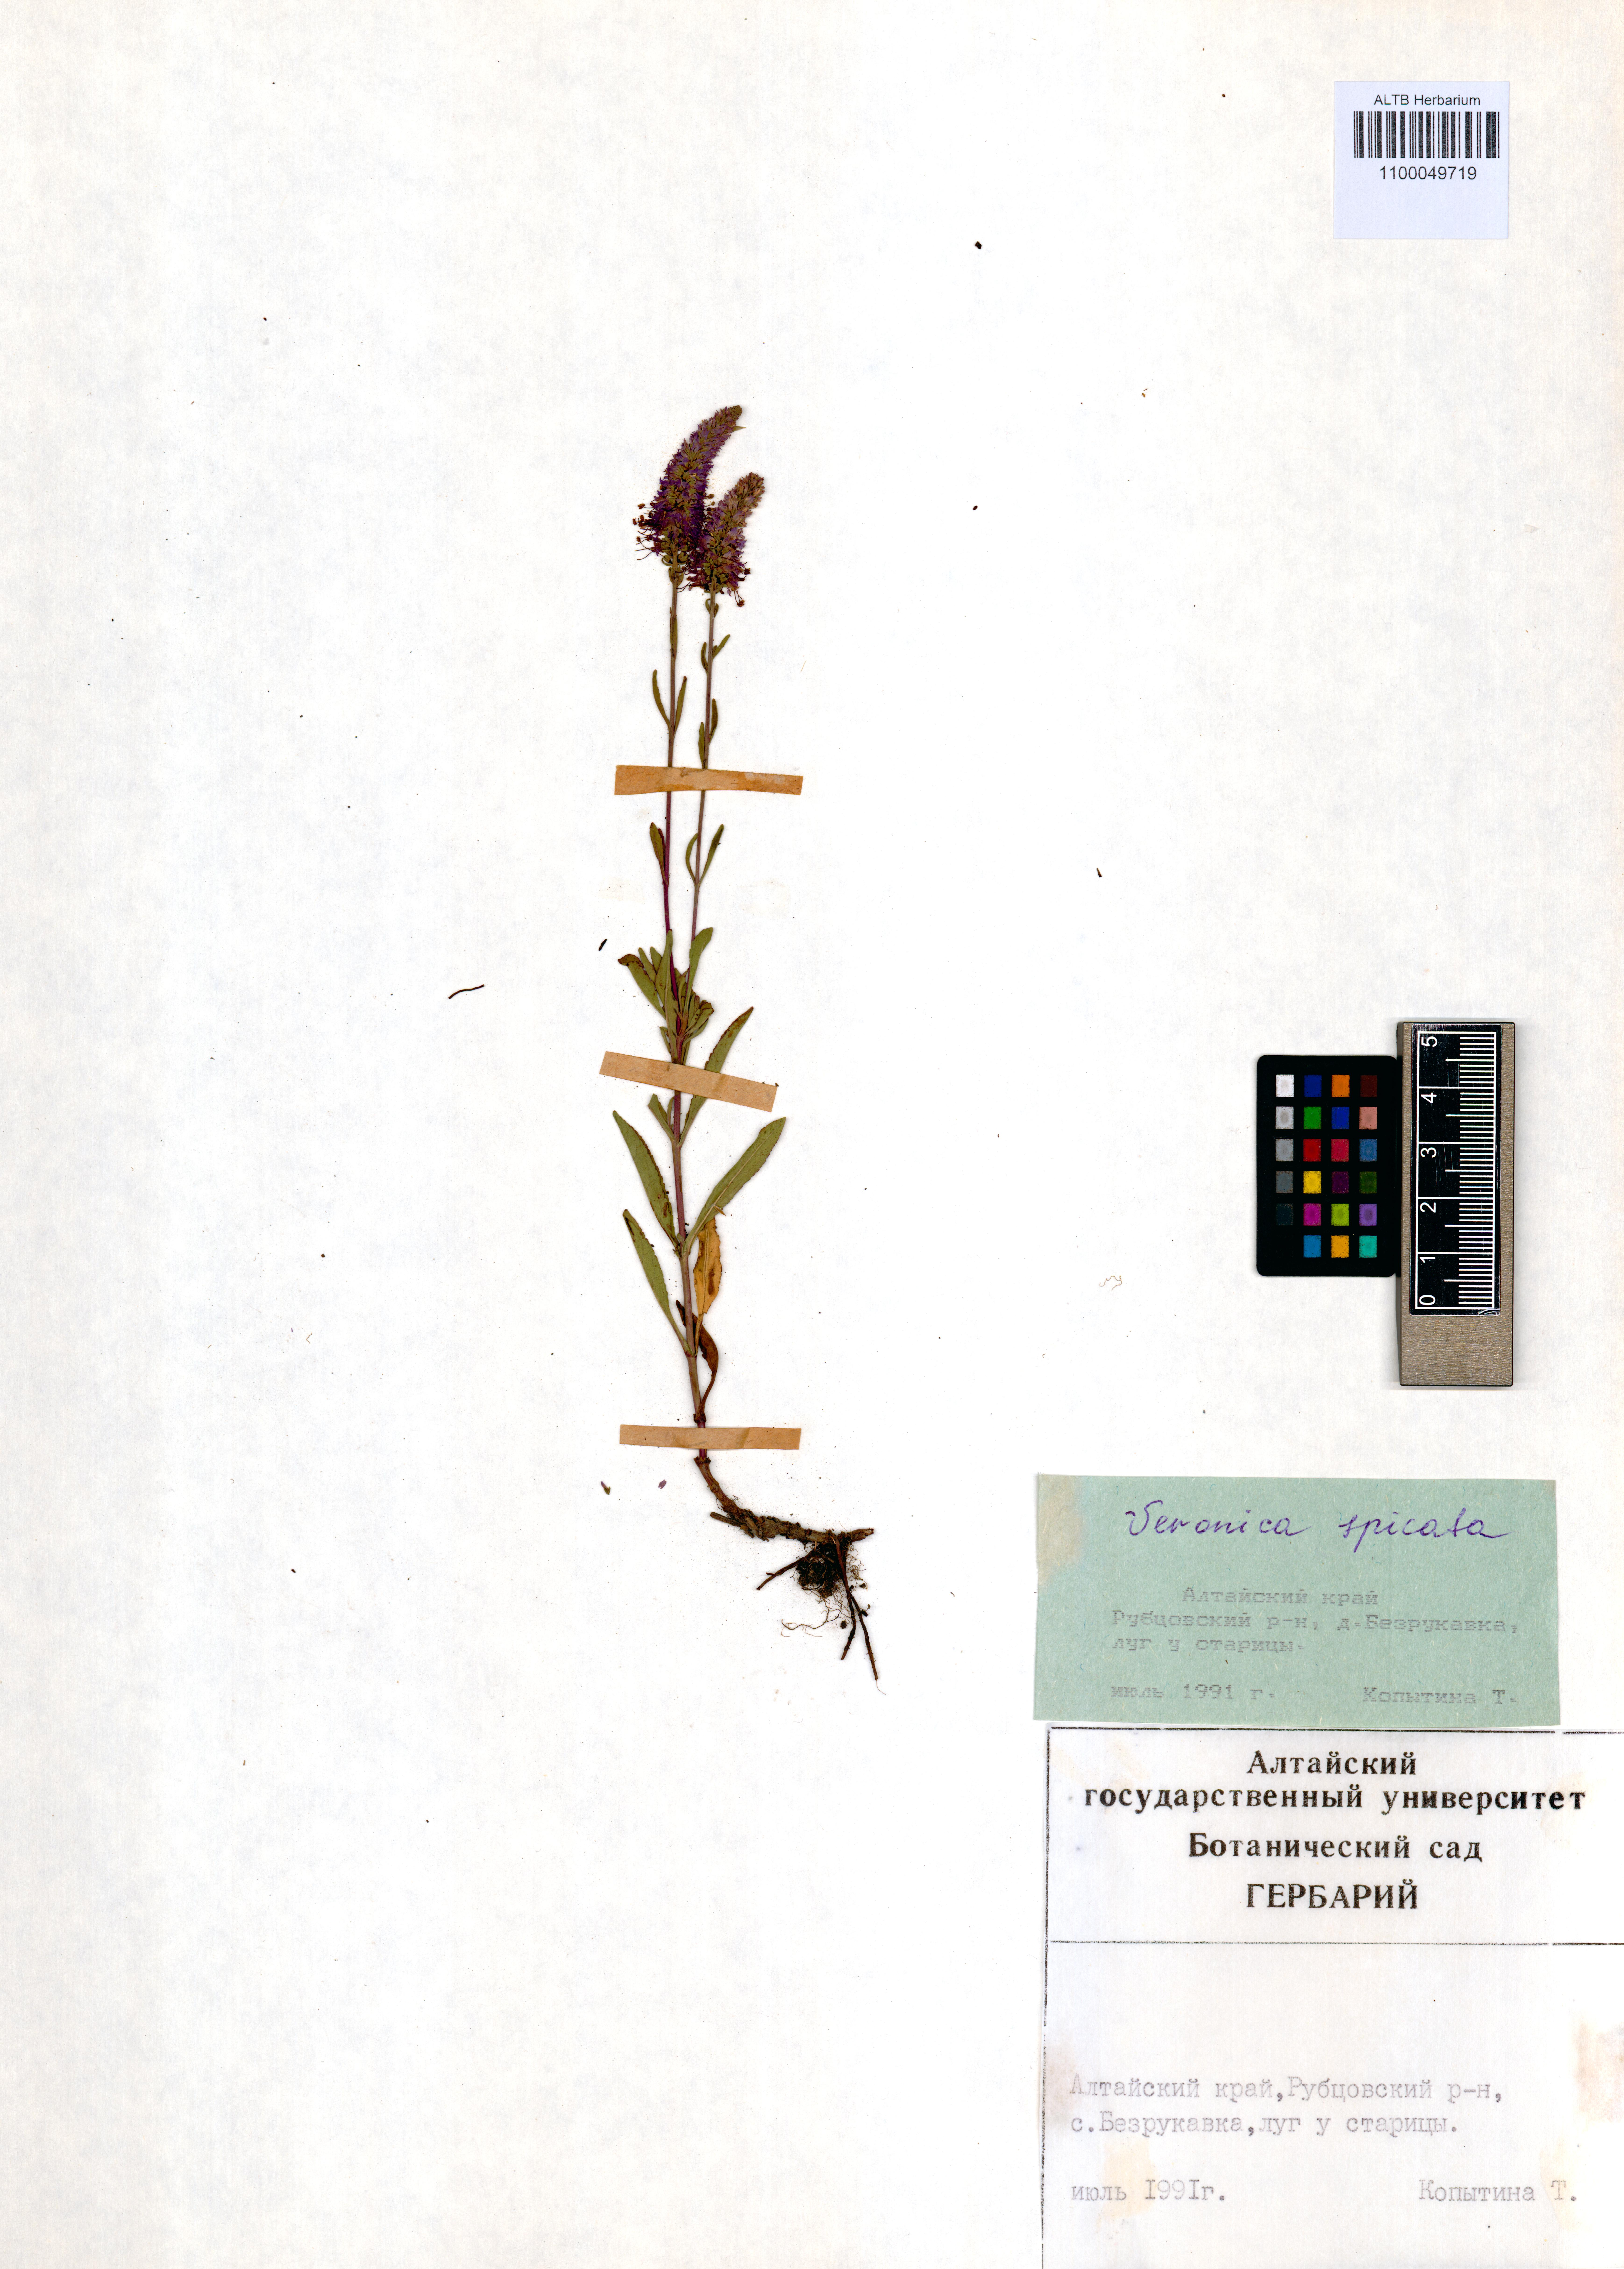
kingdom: Plantae
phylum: Tracheophyta
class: Magnoliopsida
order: Lamiales
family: Plantaginaceae
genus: Veronica
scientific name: Veronica spicata
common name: Spiked speedwell
